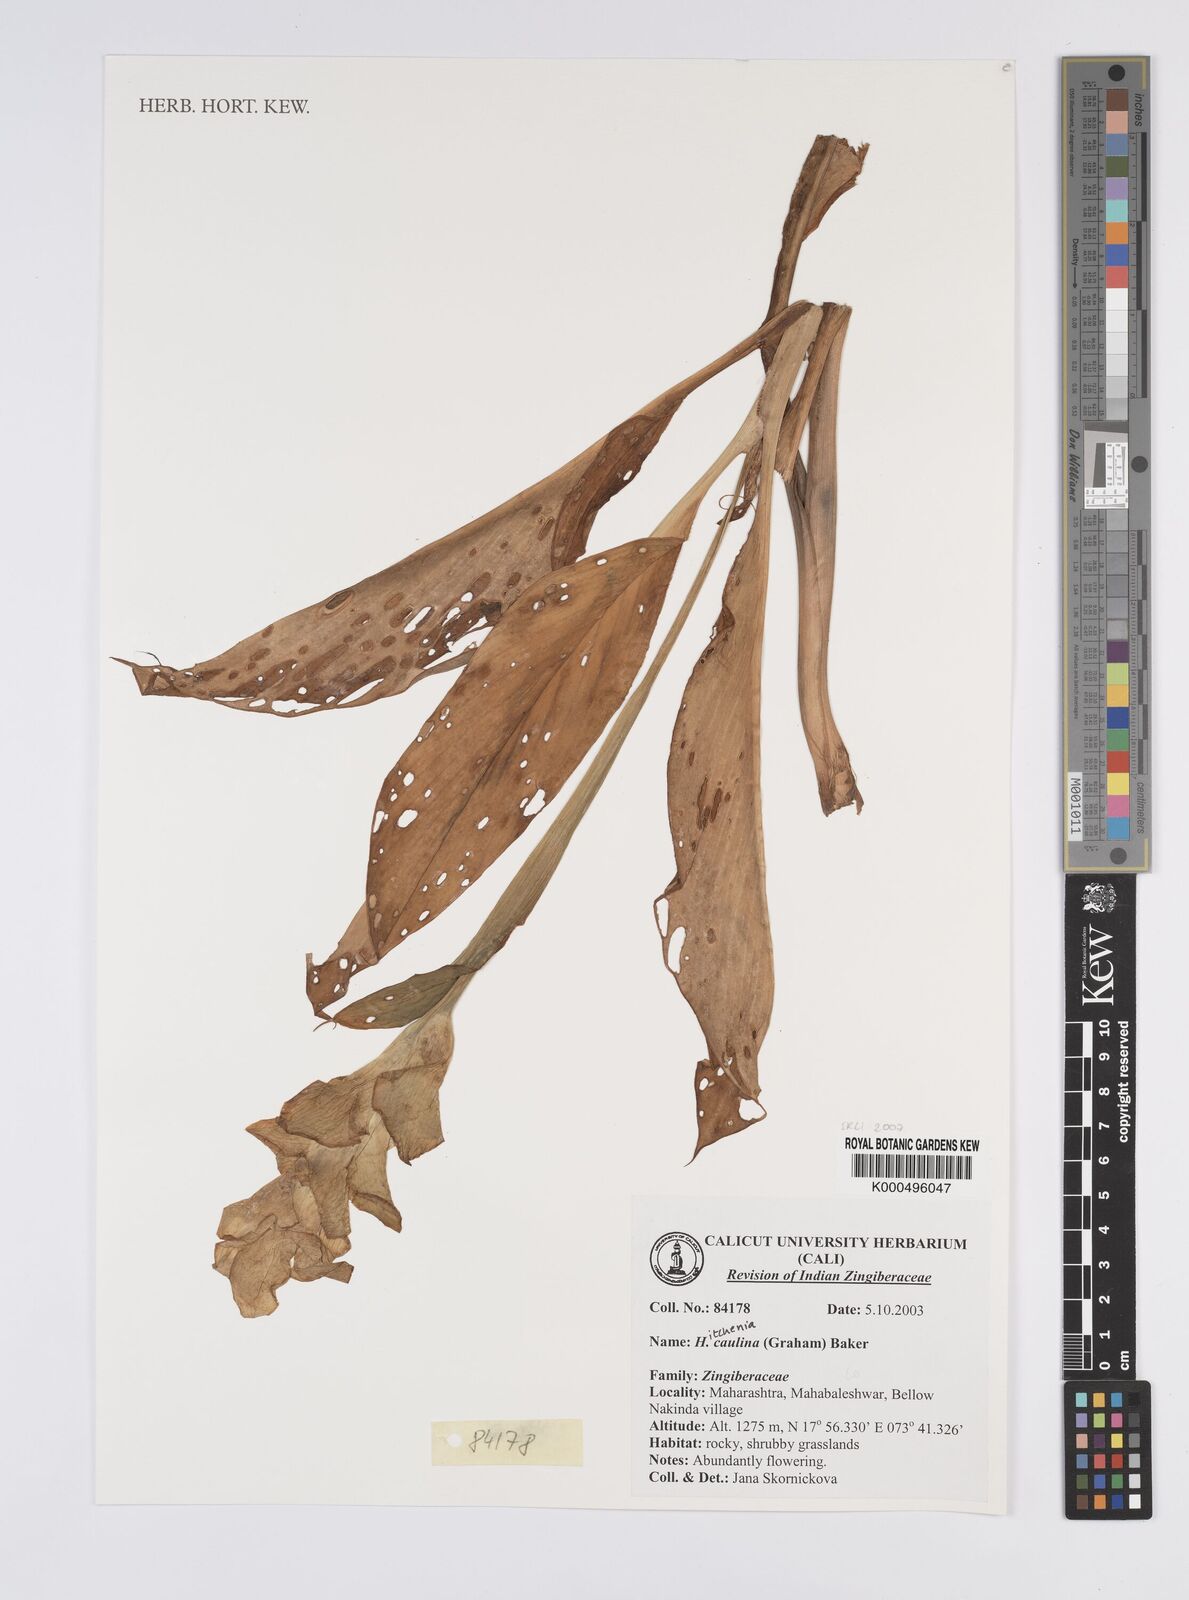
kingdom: Plantae
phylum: Tracheophyta
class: Liliopsida
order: Zingiberales
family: Zingiberaceae
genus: Curcuma
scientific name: Curcuma caulina
